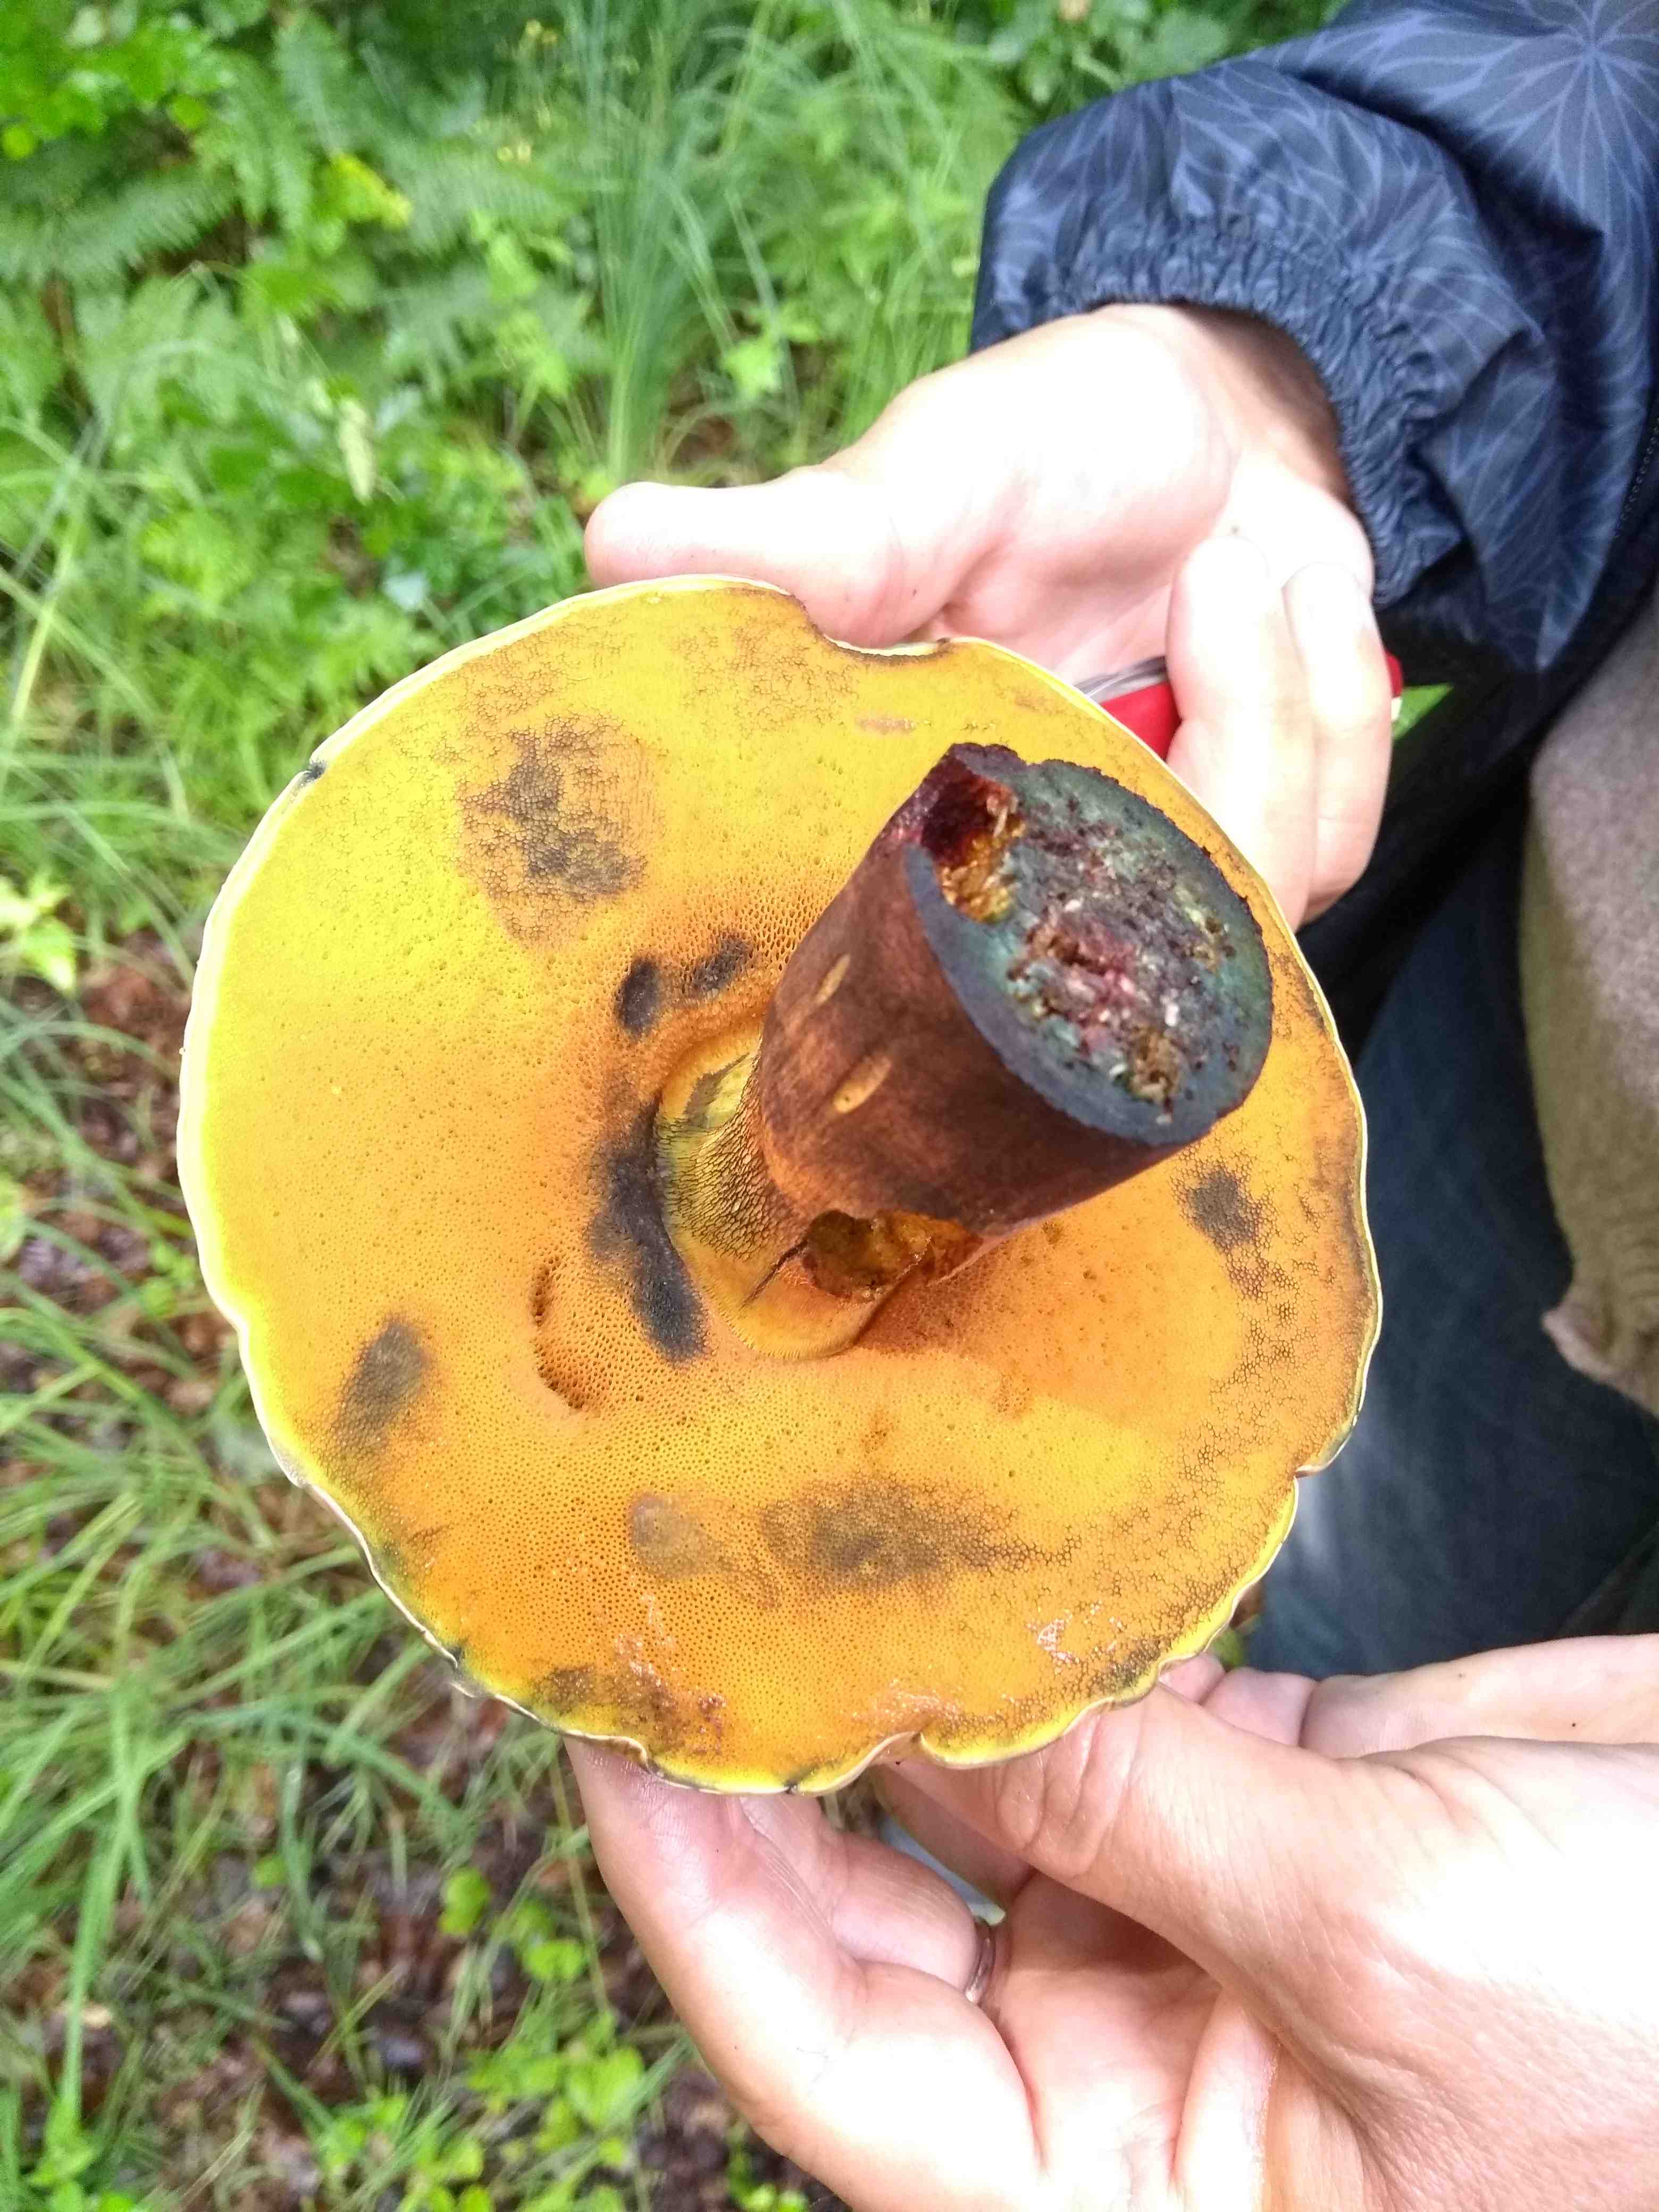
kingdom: Fungi
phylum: Basidiomycota
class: Agaricomycetes
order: Boletales
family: Boletaceae
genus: Suillellus
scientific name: Suillellus luridus
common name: netstokket indigorørhat
